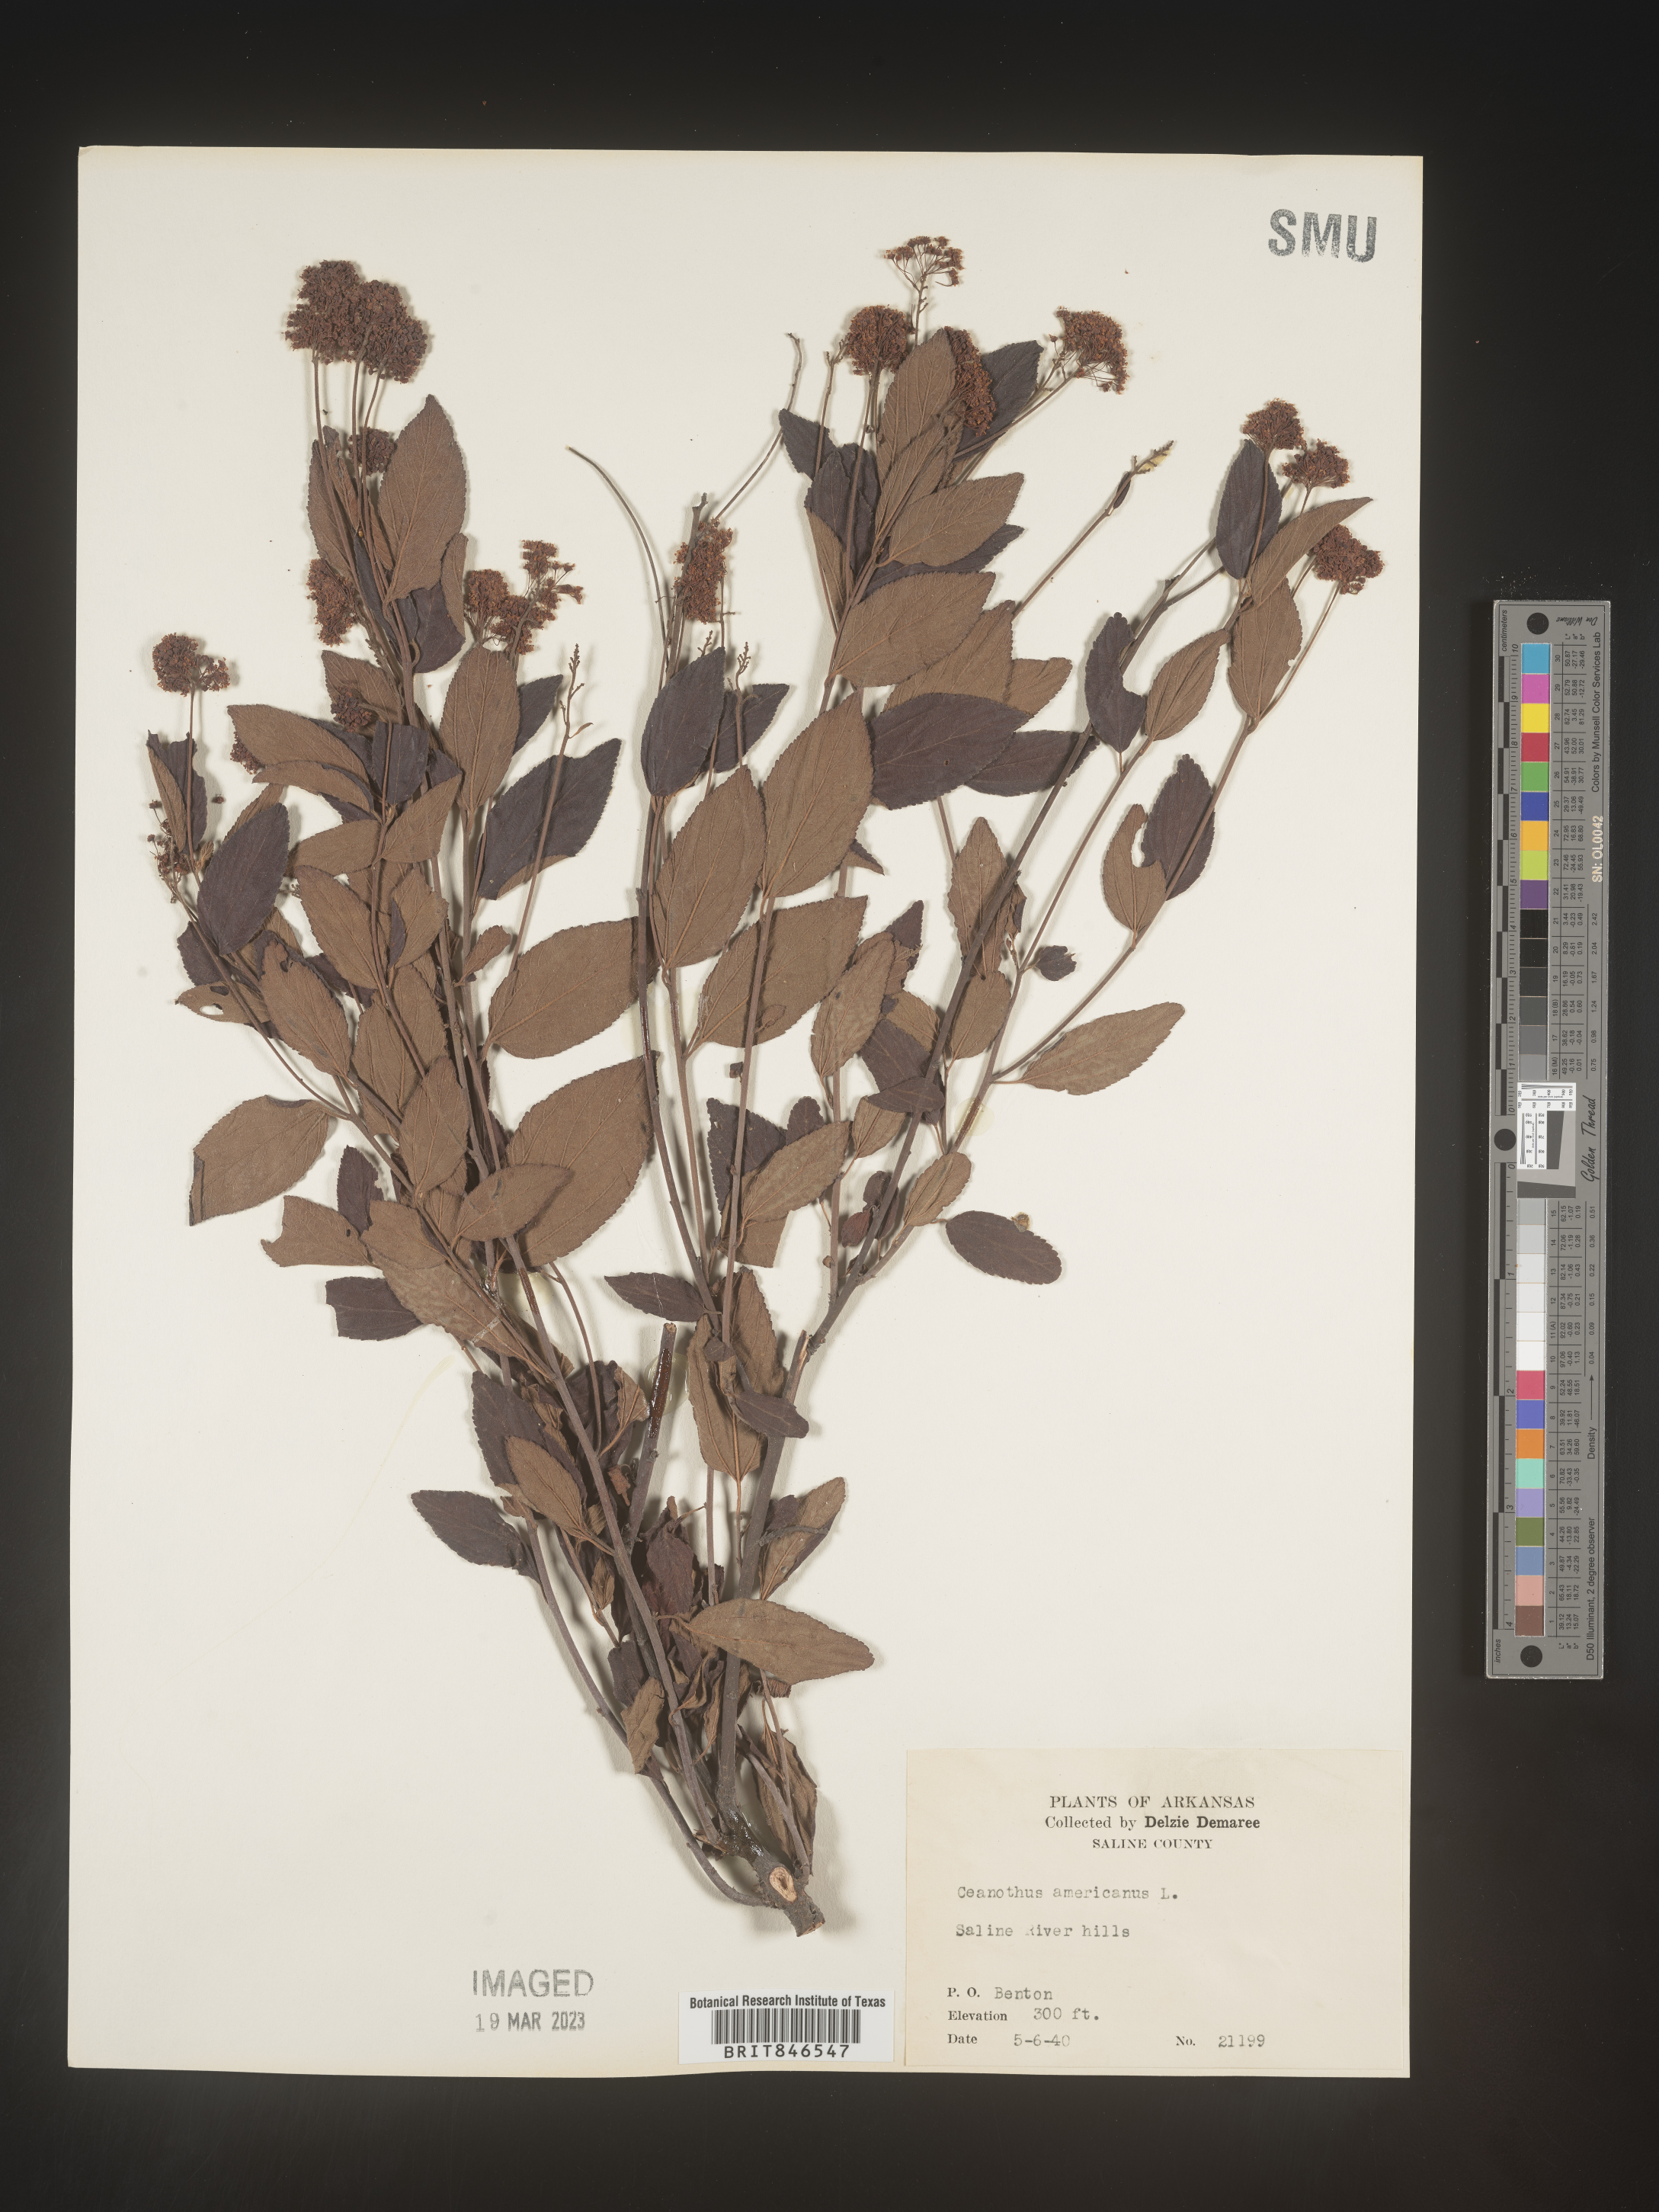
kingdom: Plantae
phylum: Tracheophyta
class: Magnoliopsida
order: Rosales
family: Rhamnaceae
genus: Ceanothus
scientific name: Ceanothus americanus
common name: Redroot
